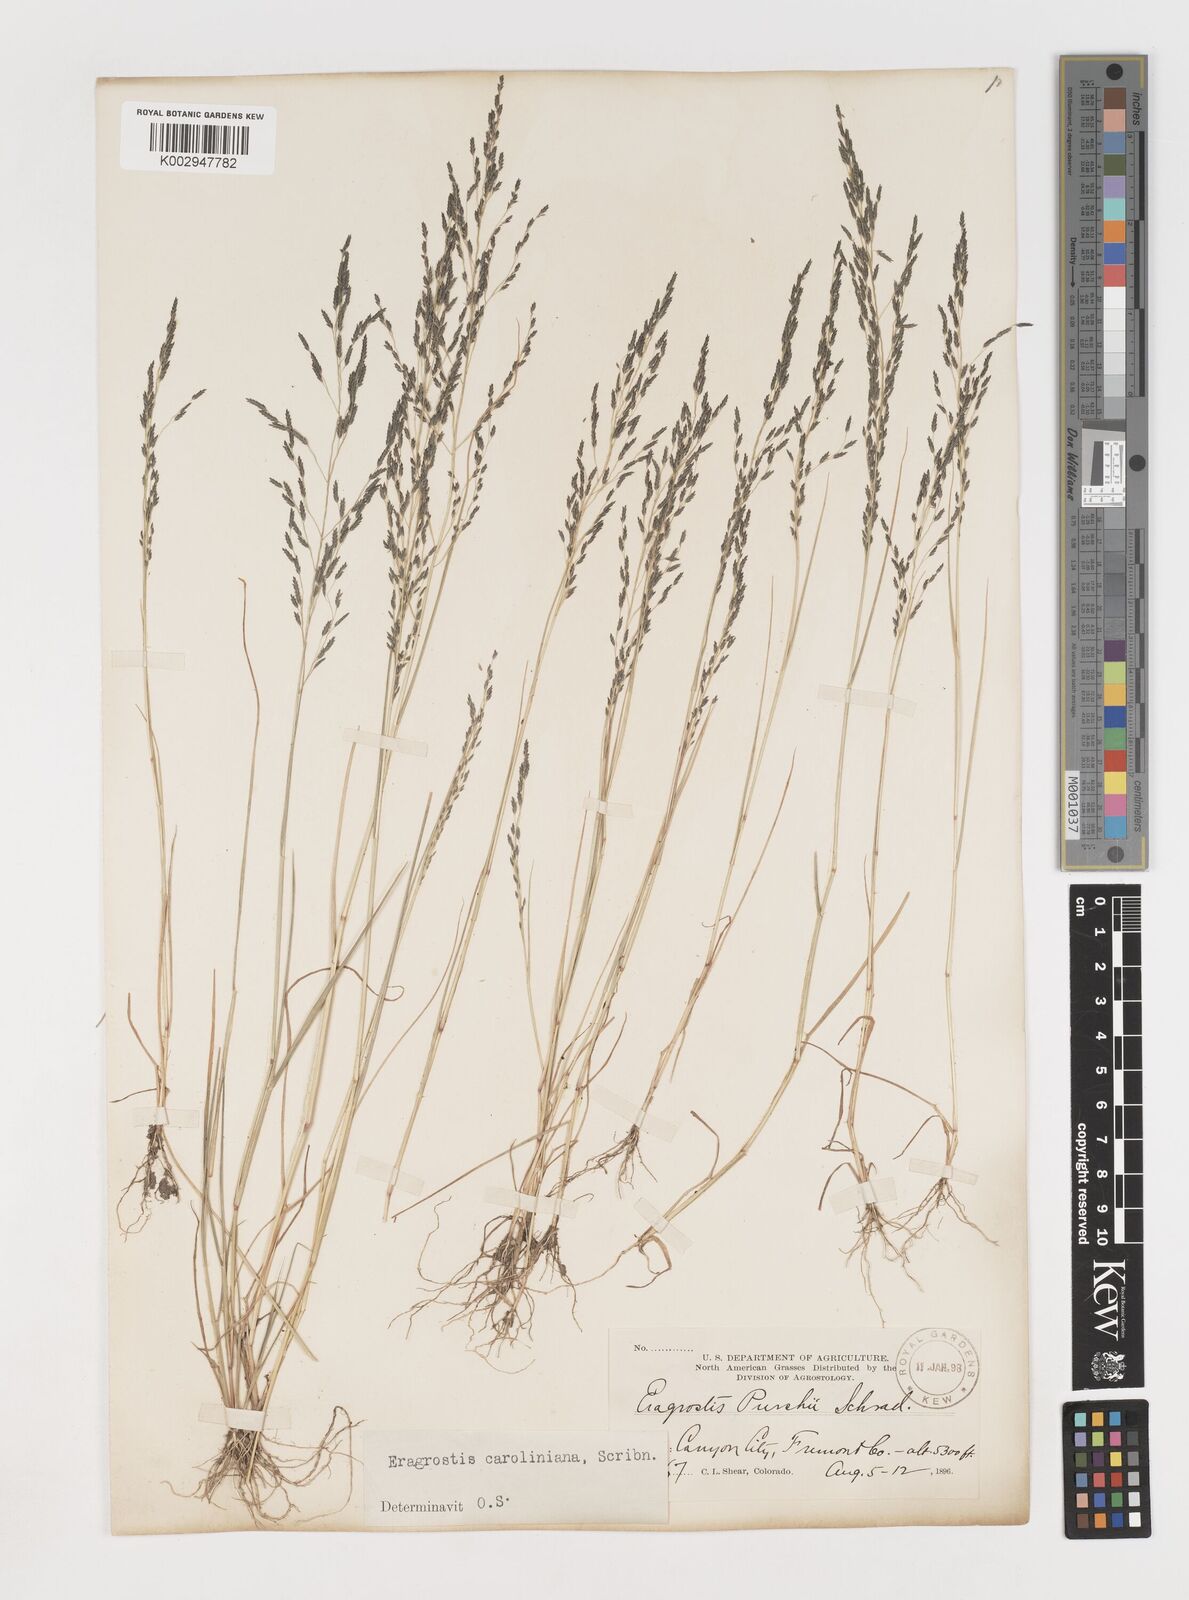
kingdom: Plantae
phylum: Tracheophyta
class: Liliopsida
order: Poales
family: Poaceae
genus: Eragrostis
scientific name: Eragrostis pectinacea
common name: Tufted lovegrass
